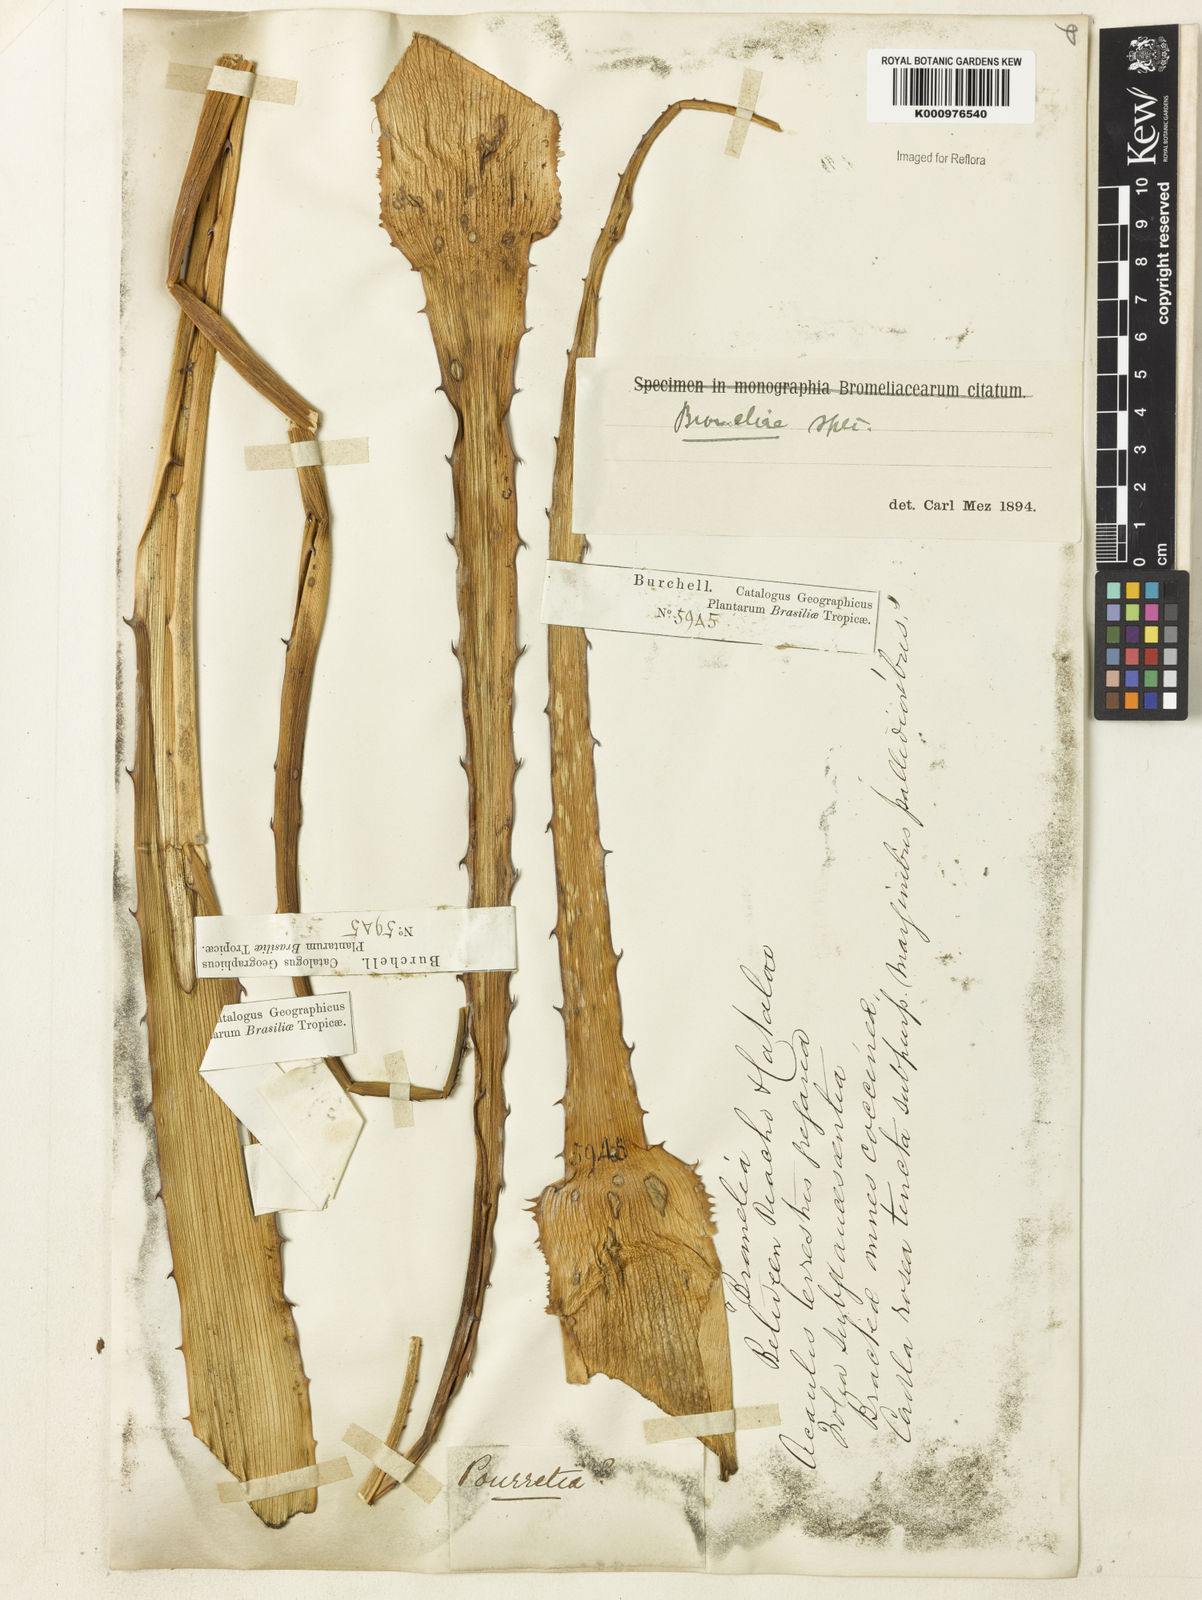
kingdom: Plantae
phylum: Tracheophyta
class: Liliopsida
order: Poales
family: Bromeliaceae
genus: Bromelia
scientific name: Bromelia
